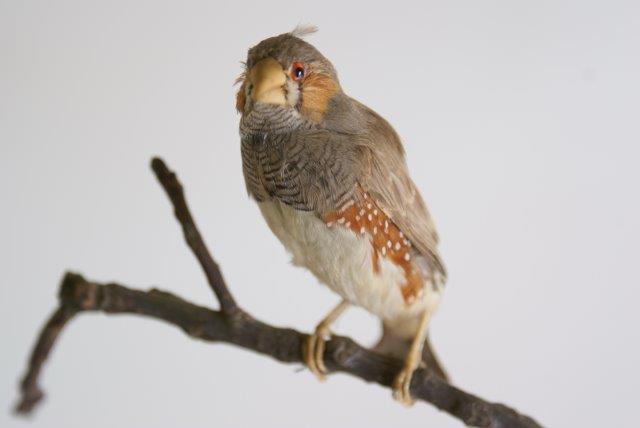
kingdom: Animalia
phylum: Chordata
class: Aves
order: Passeriformes
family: Estrildidae
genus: Taeniopygia
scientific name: Taeniopygia guttata
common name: Zebra finch
